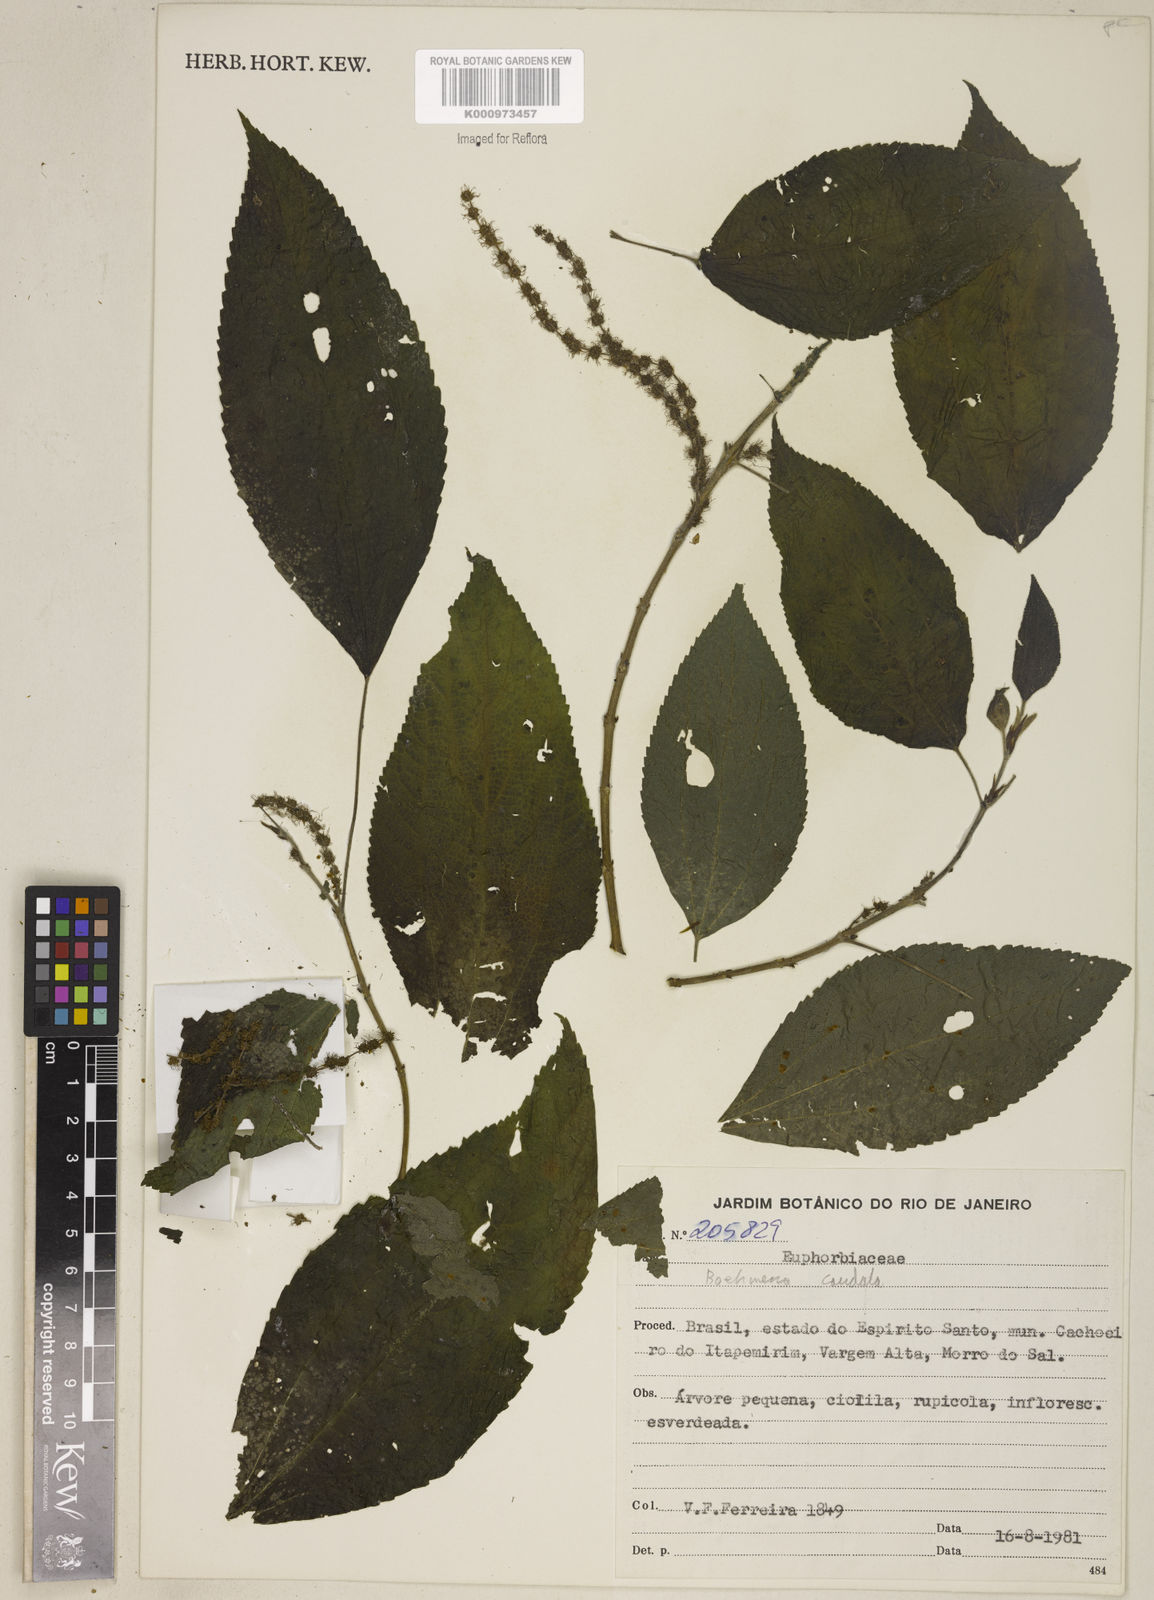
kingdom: Plantae
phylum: Tracheophyta
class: Magnoliopsida
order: Rosales
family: Urticaceae
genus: Boehmeria
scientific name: Boehmeria caudata
